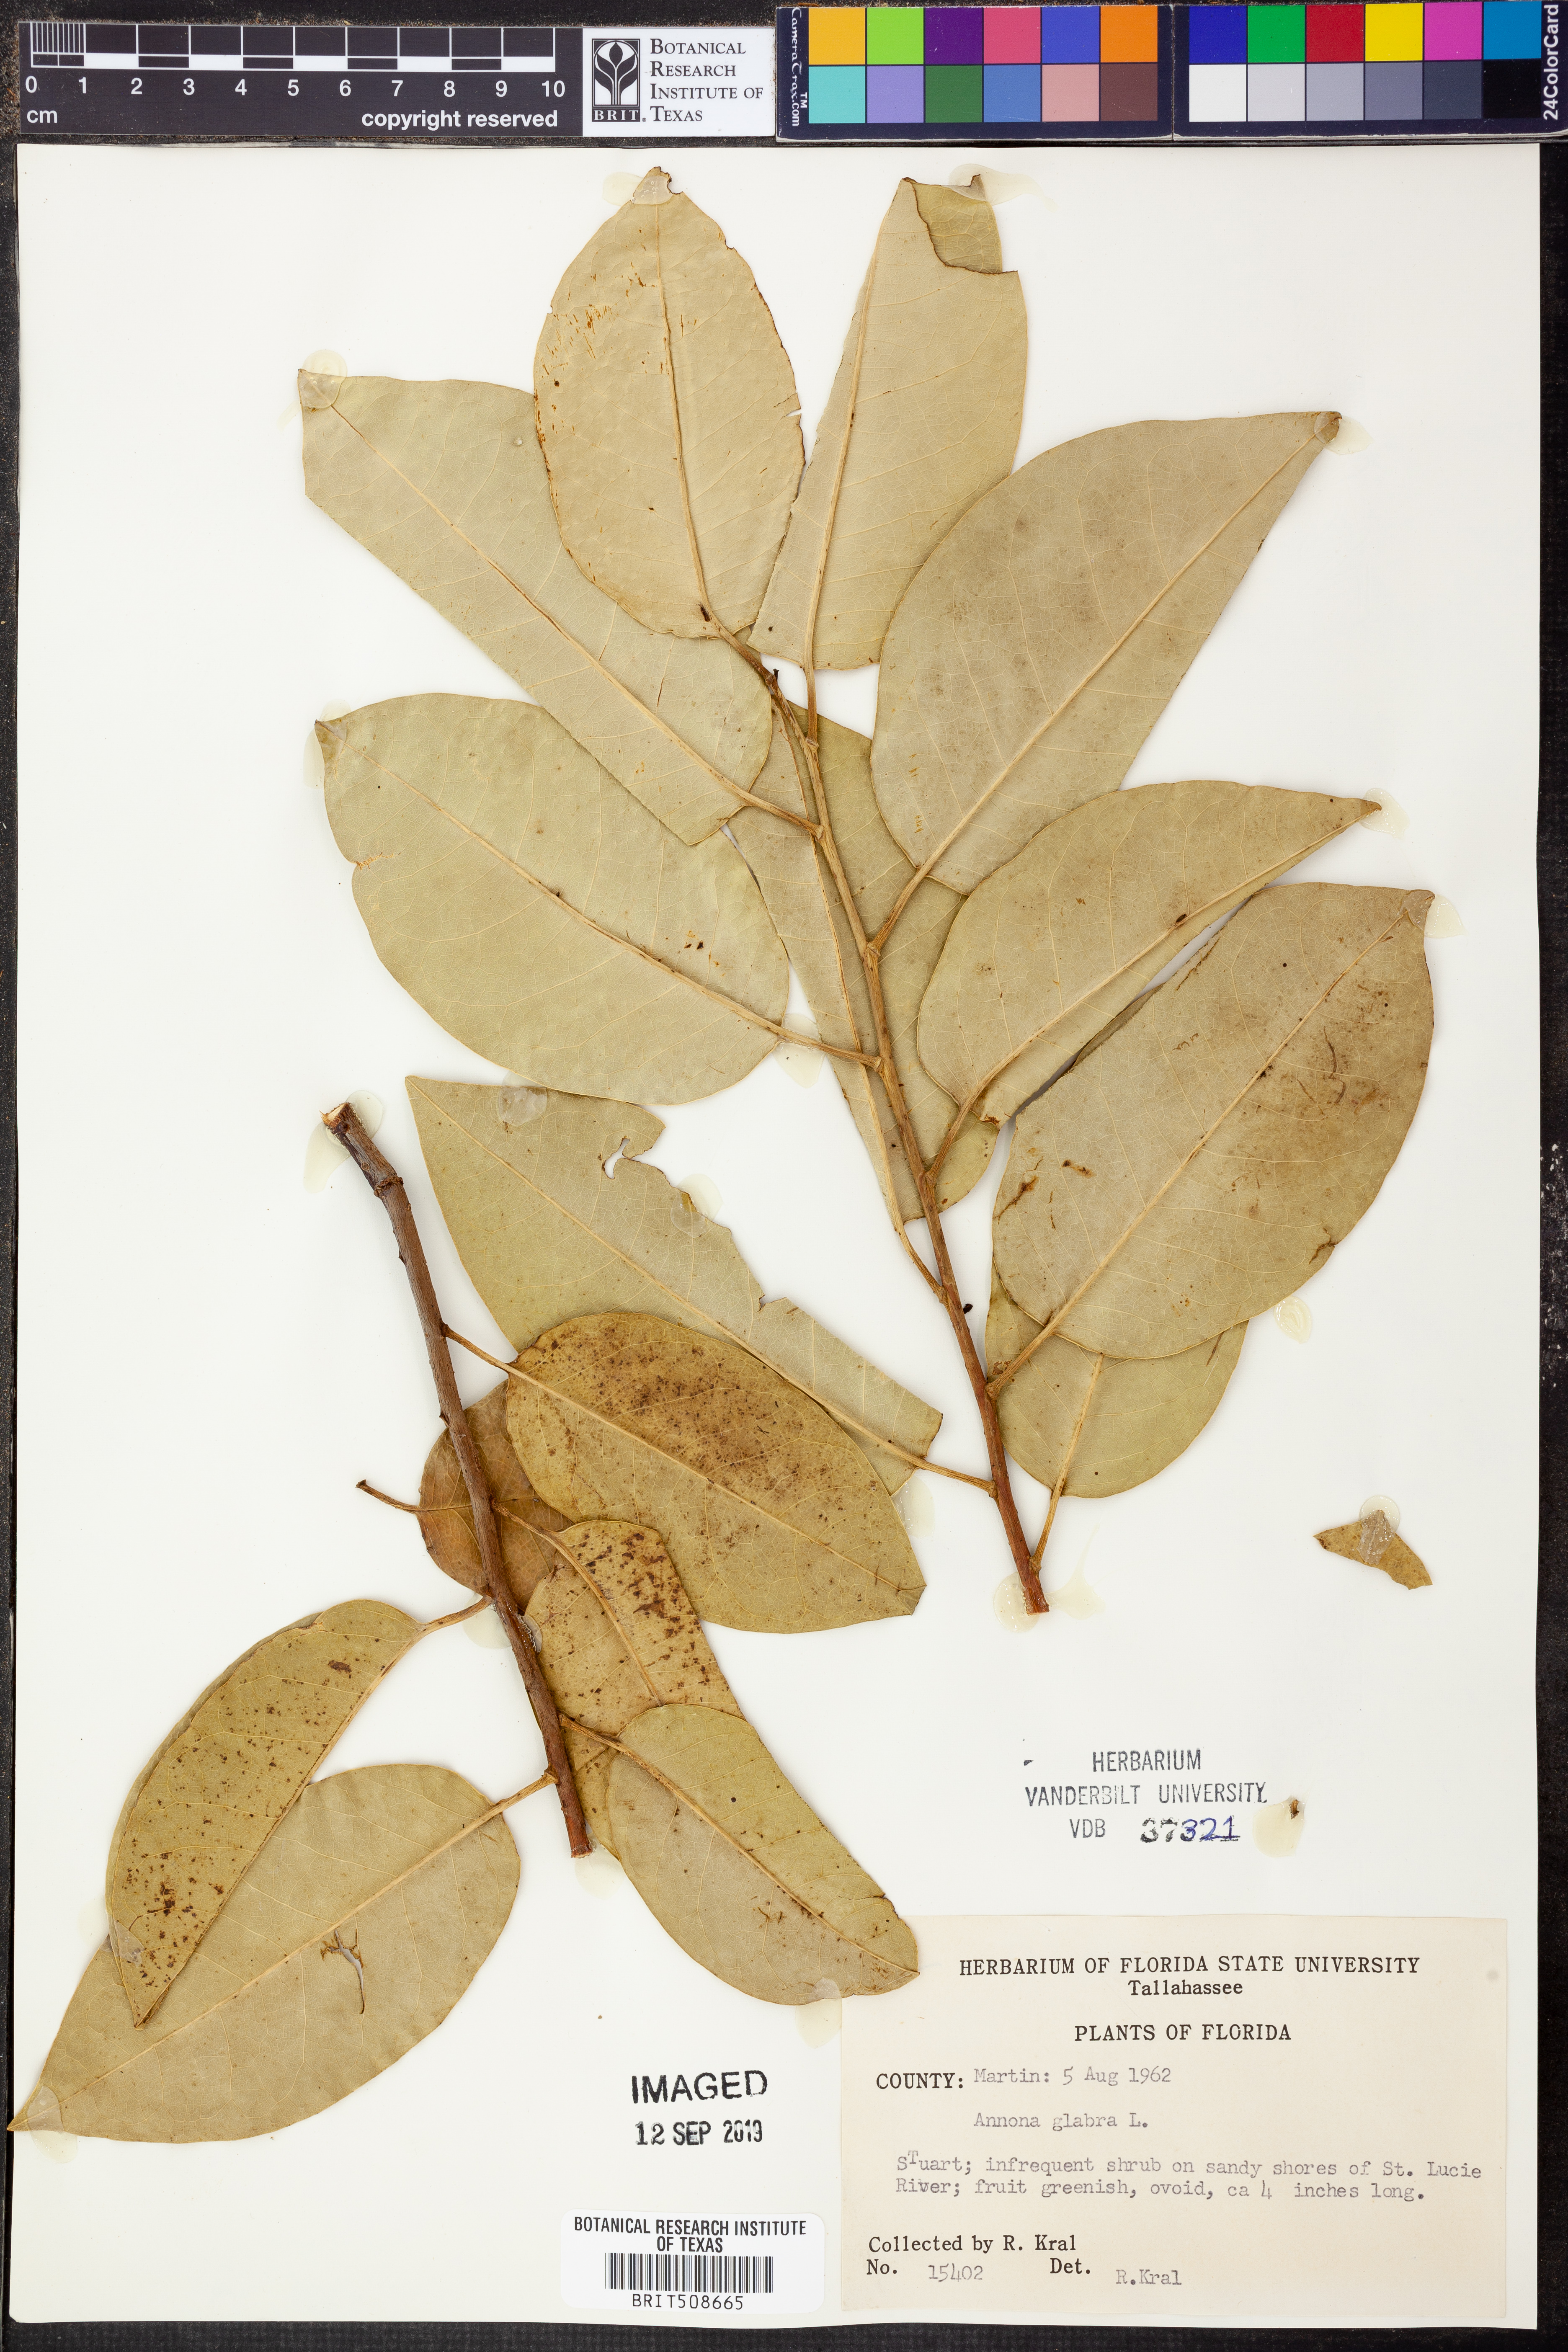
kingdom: Plantae
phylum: Tracheophyta
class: Magnoliopsida
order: Magnoliales
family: Annonaceae
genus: Annona
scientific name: Annona glabra
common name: Monkey apple
